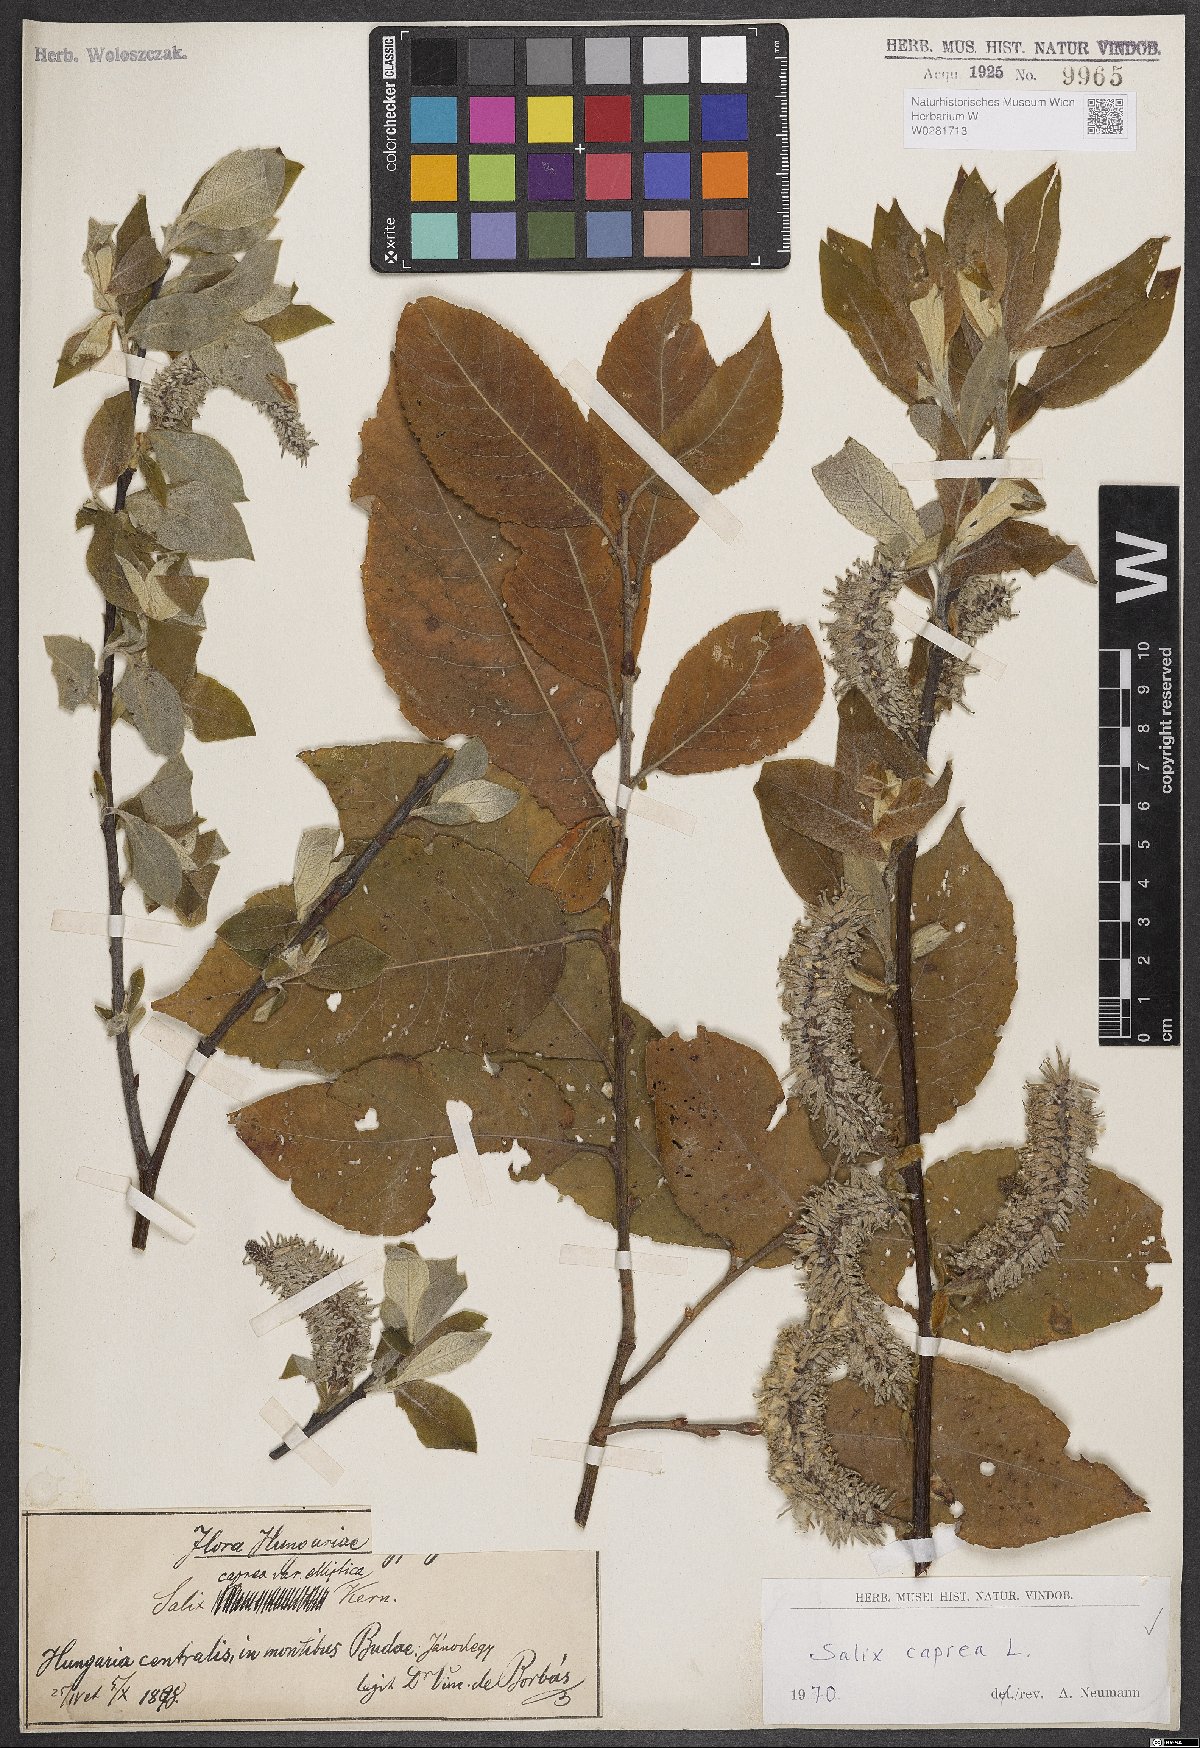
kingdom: Plantae
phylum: Tracheophyta
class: Magnoliopsida
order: Malpighiales
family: Salicaceae
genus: Salix
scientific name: Salix caprea
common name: Goat willow
